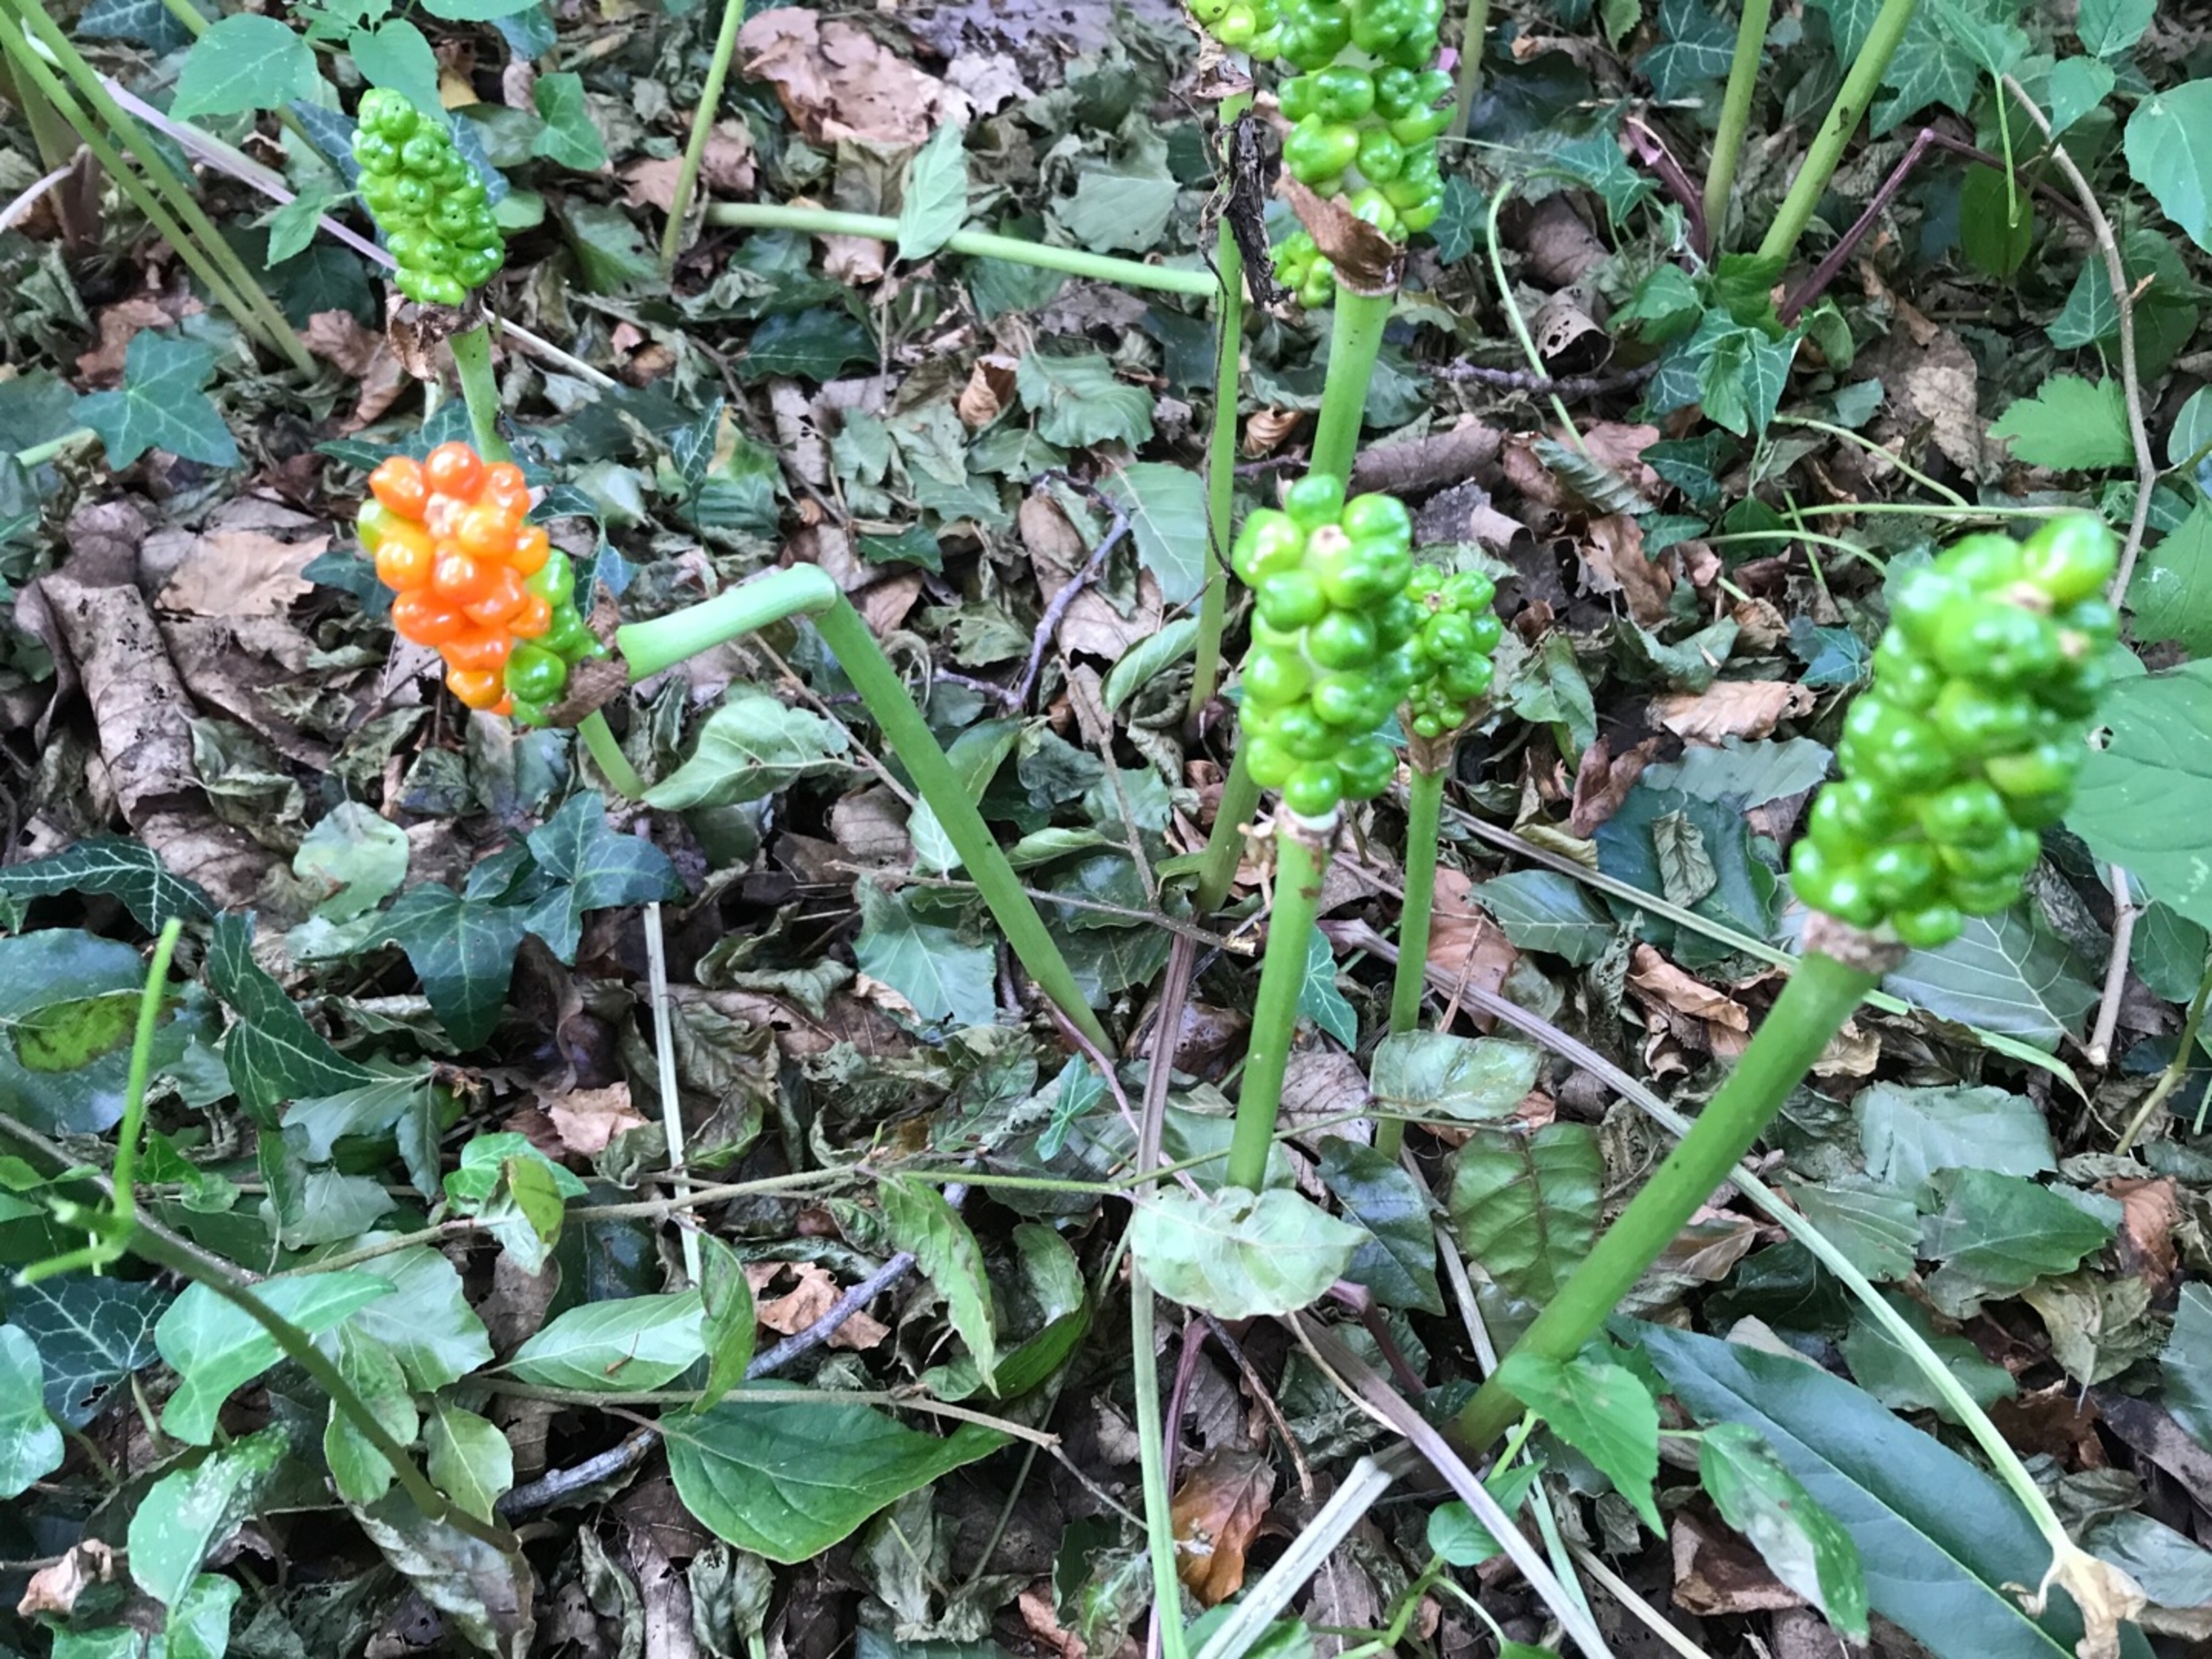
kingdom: Plantae
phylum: Tracheophyta
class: Liliopsida
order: Alismatales
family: Araceae
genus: Arum
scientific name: Arum maculatum
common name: Plettet arum
